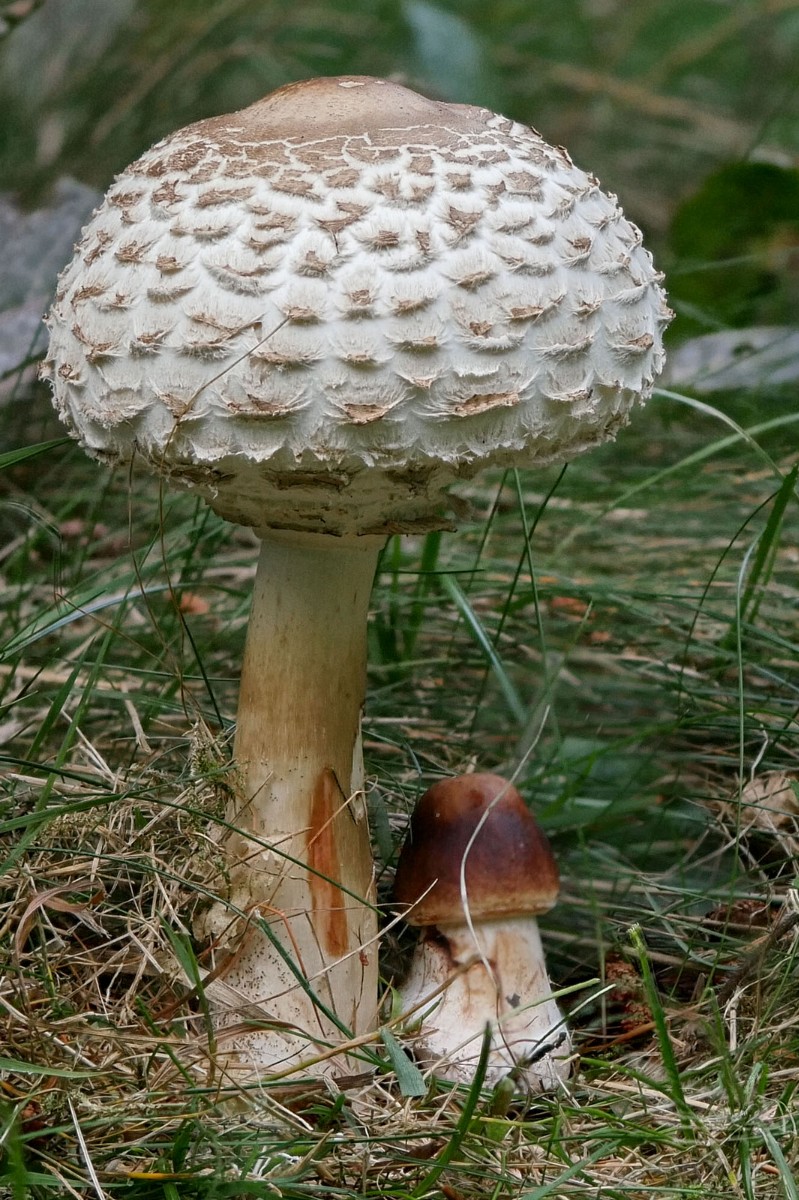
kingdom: Fungi
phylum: Basidiomycota
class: Agaricomycetes
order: Agaricales
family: Agaricaceae
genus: Chlorophyllum
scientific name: Chlorophyllum rhacodes
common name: ægte rabarberhat
